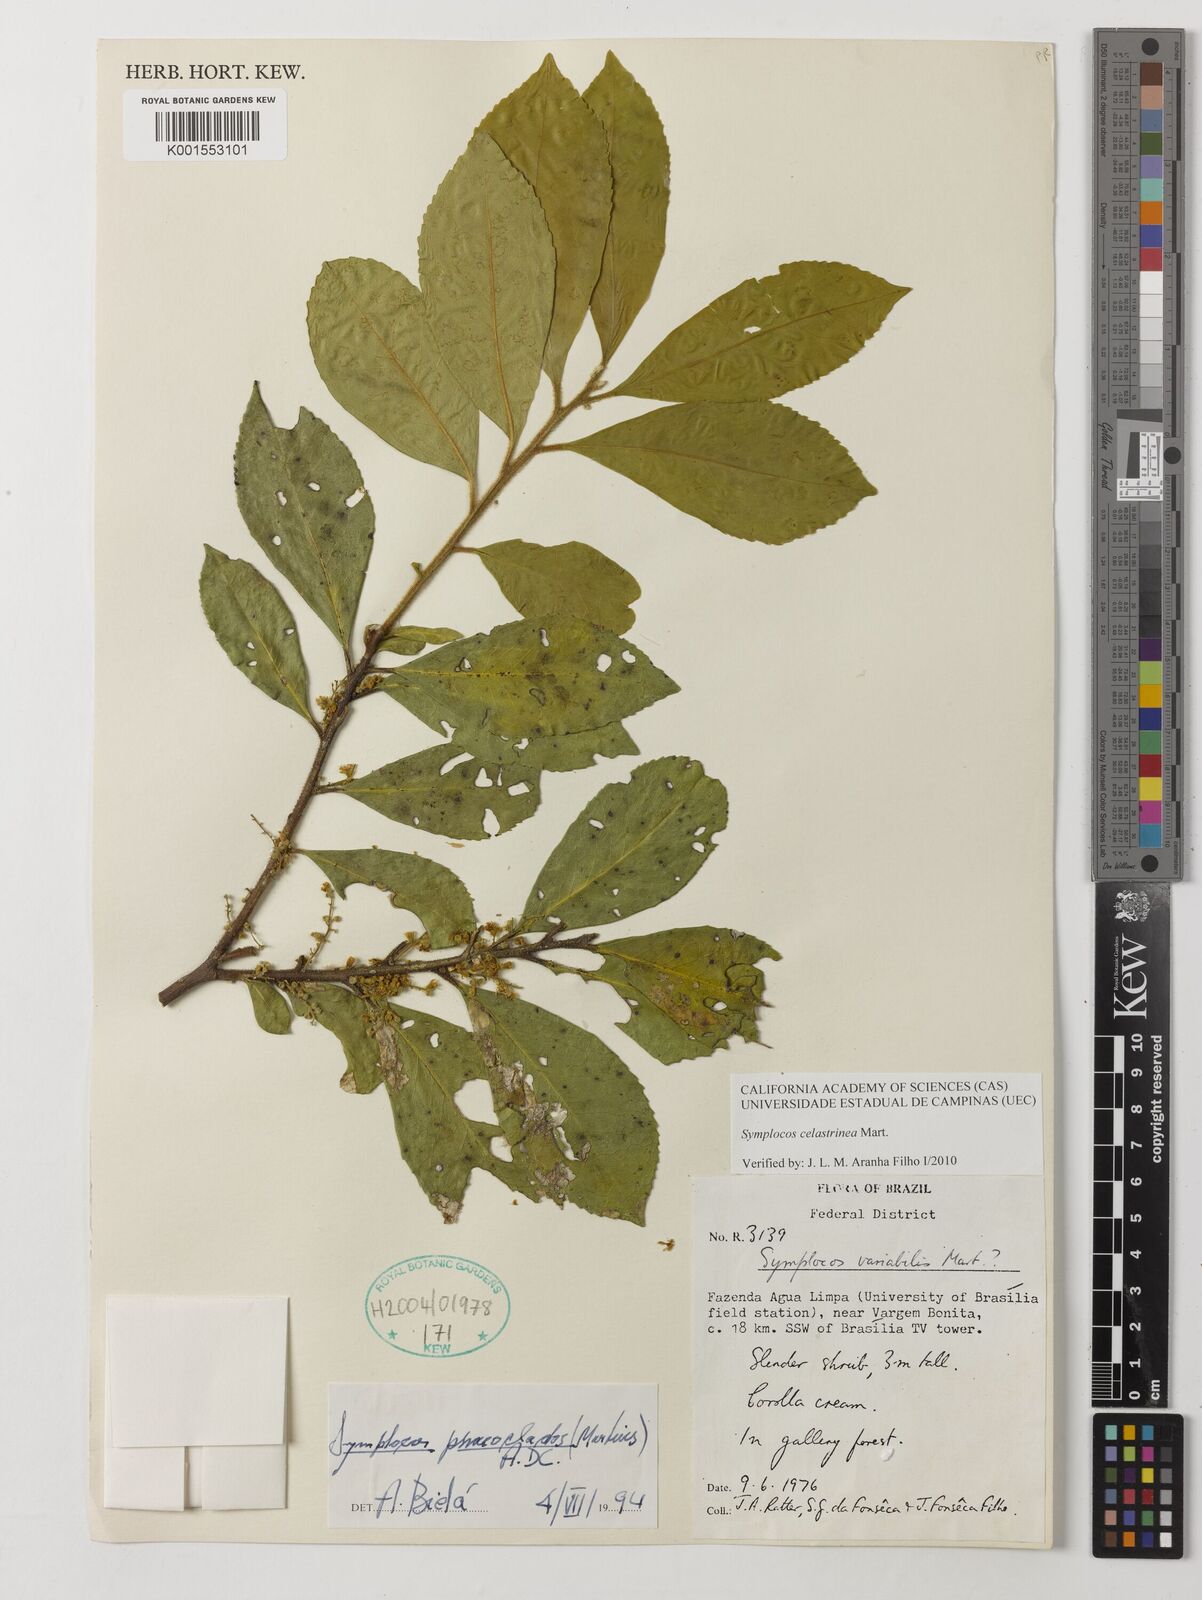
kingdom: Plantae
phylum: Tracheophyta
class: Magnoliopsida
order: Ericales
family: Symplocaceae
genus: Symplocos
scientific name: Symplocos celastrinea
